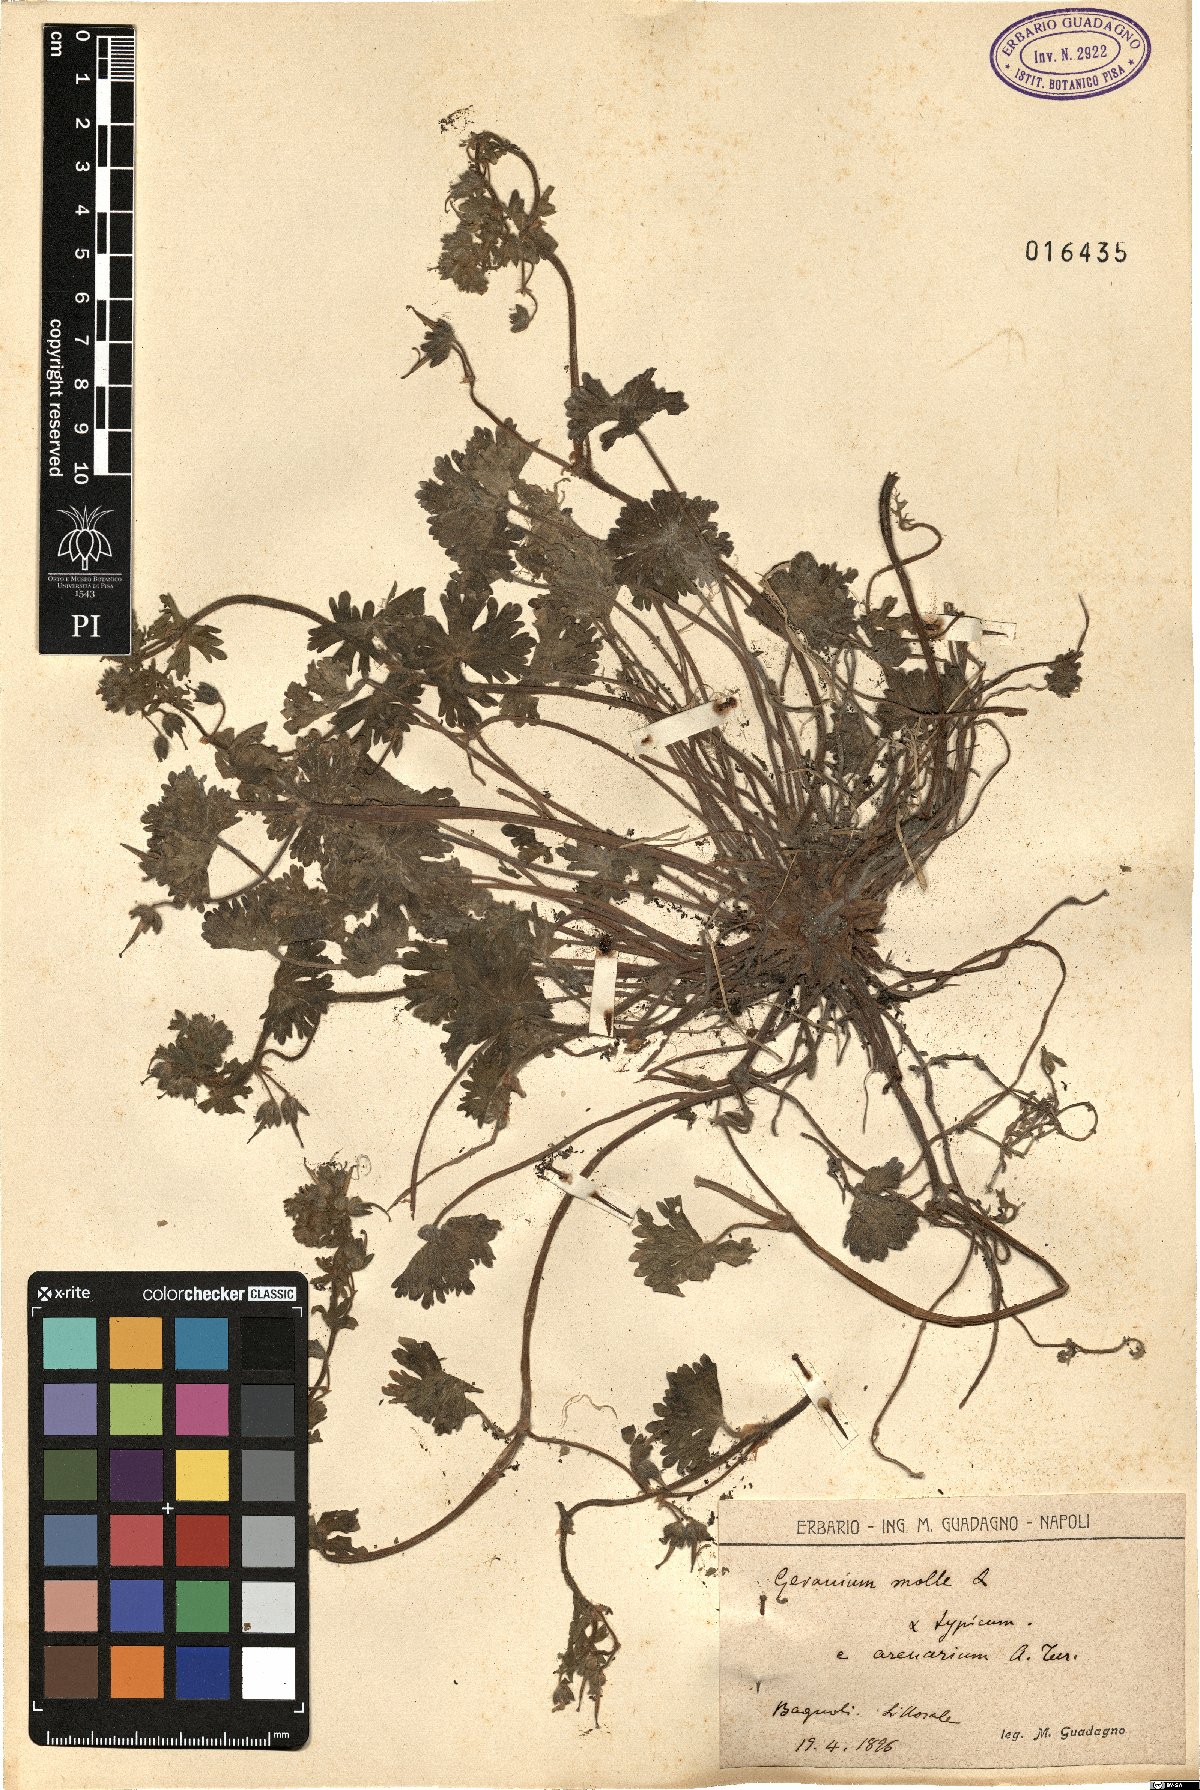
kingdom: Plantae
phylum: Tracheophyta
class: Magnoliopsida
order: Geraniales
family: Geraniaceae
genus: Geranium
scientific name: Geranium molle
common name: Dove's-foot crane's-bill
